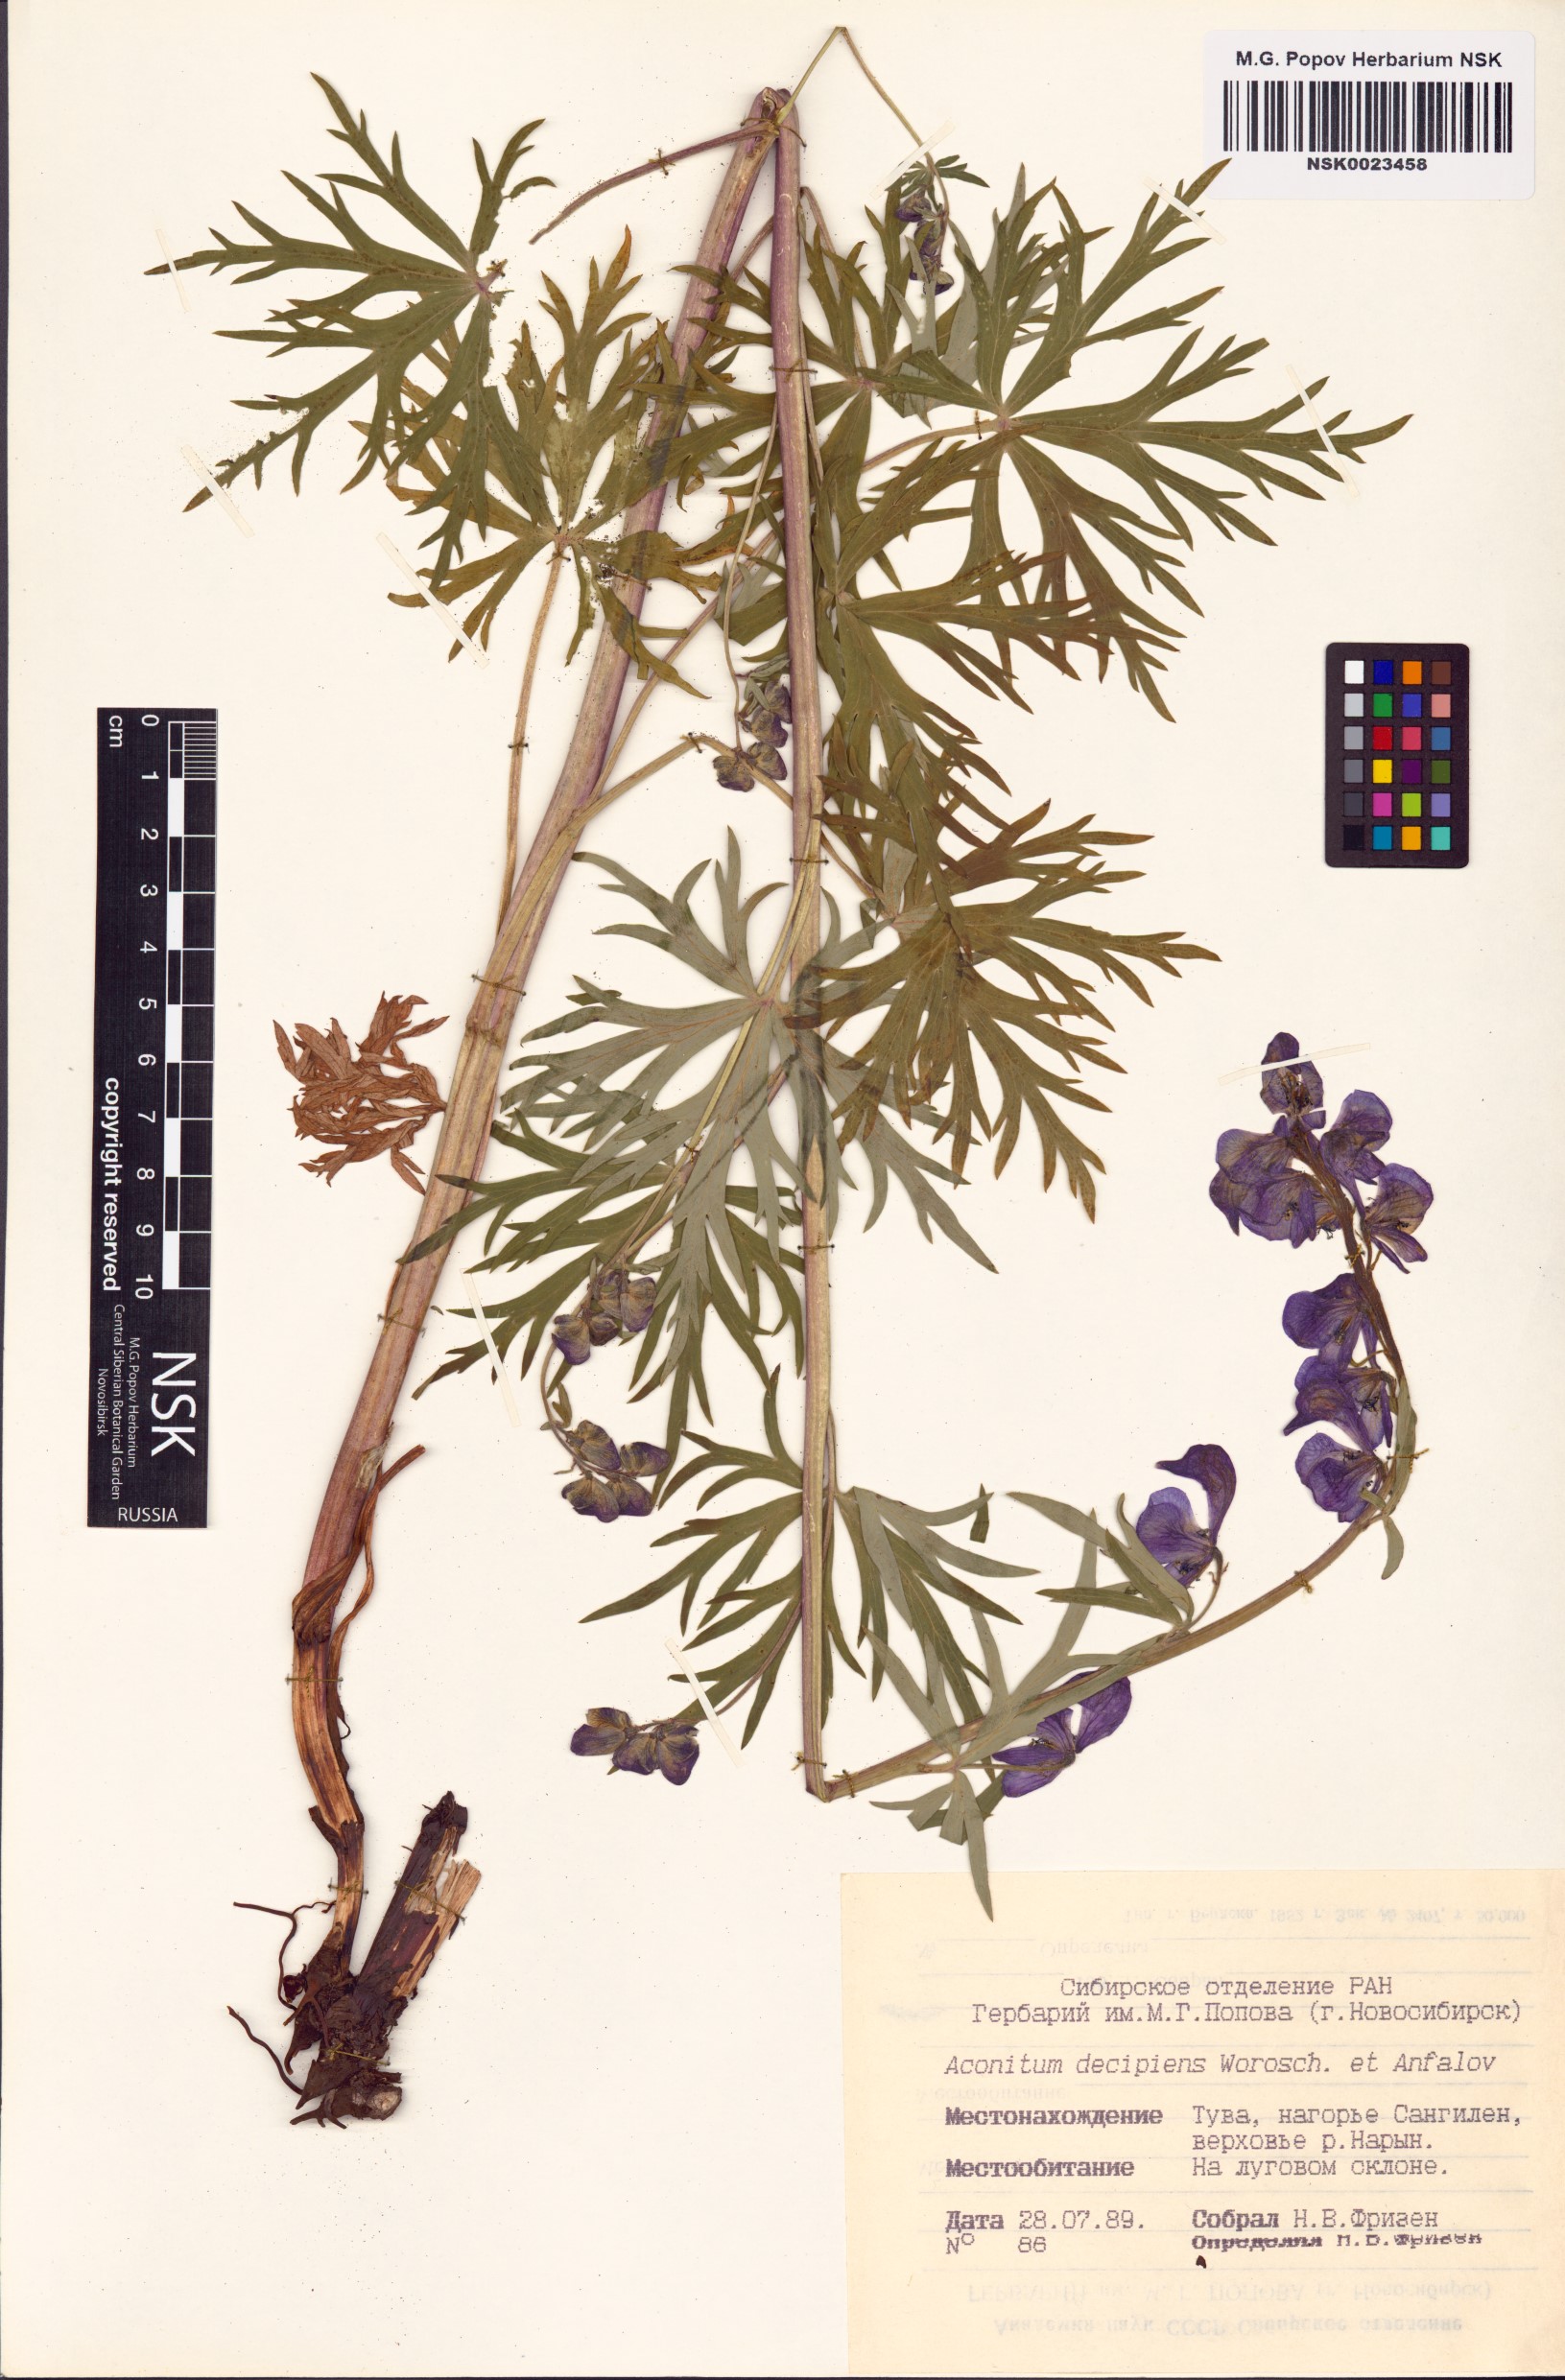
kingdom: Plantae
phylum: Tracheophyta
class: Magnoliopsida
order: Ranunculales
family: Ranunculaceae
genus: Aconitum
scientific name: Aconitum decipiens
